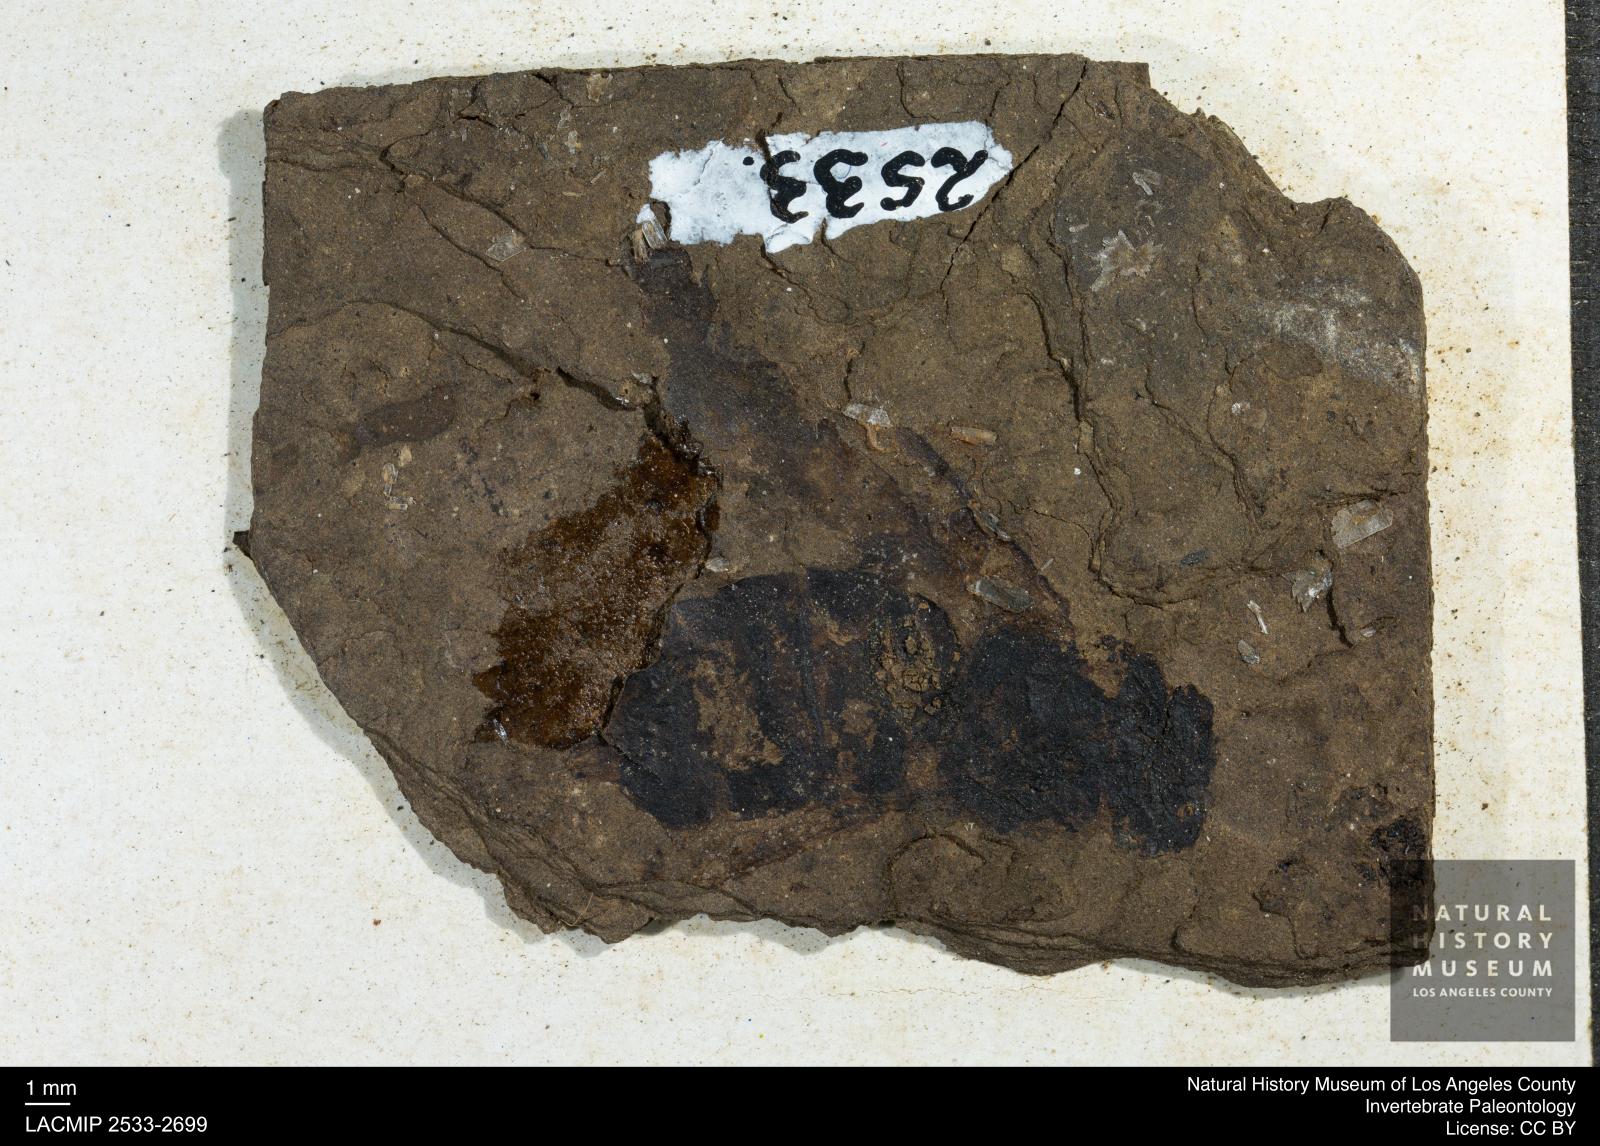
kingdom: Animalia
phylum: Arthropoda
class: Insecta
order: Hymenoptera
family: Apidae
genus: Apis
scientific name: Apis henshawi
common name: Henshaw's honey bee
